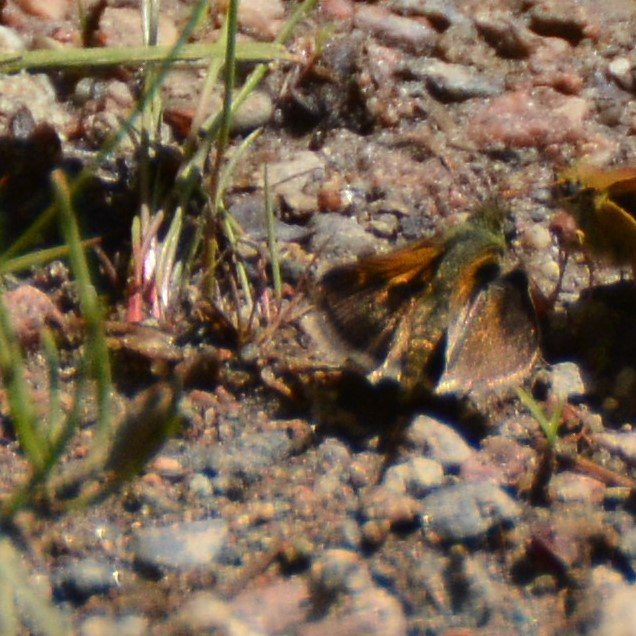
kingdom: Animalia
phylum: Arthropoda
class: Insecta
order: Lepidoptera
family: Hesperiidae
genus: Polites
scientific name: Polites themistocles
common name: Tawny-edged Skipper
